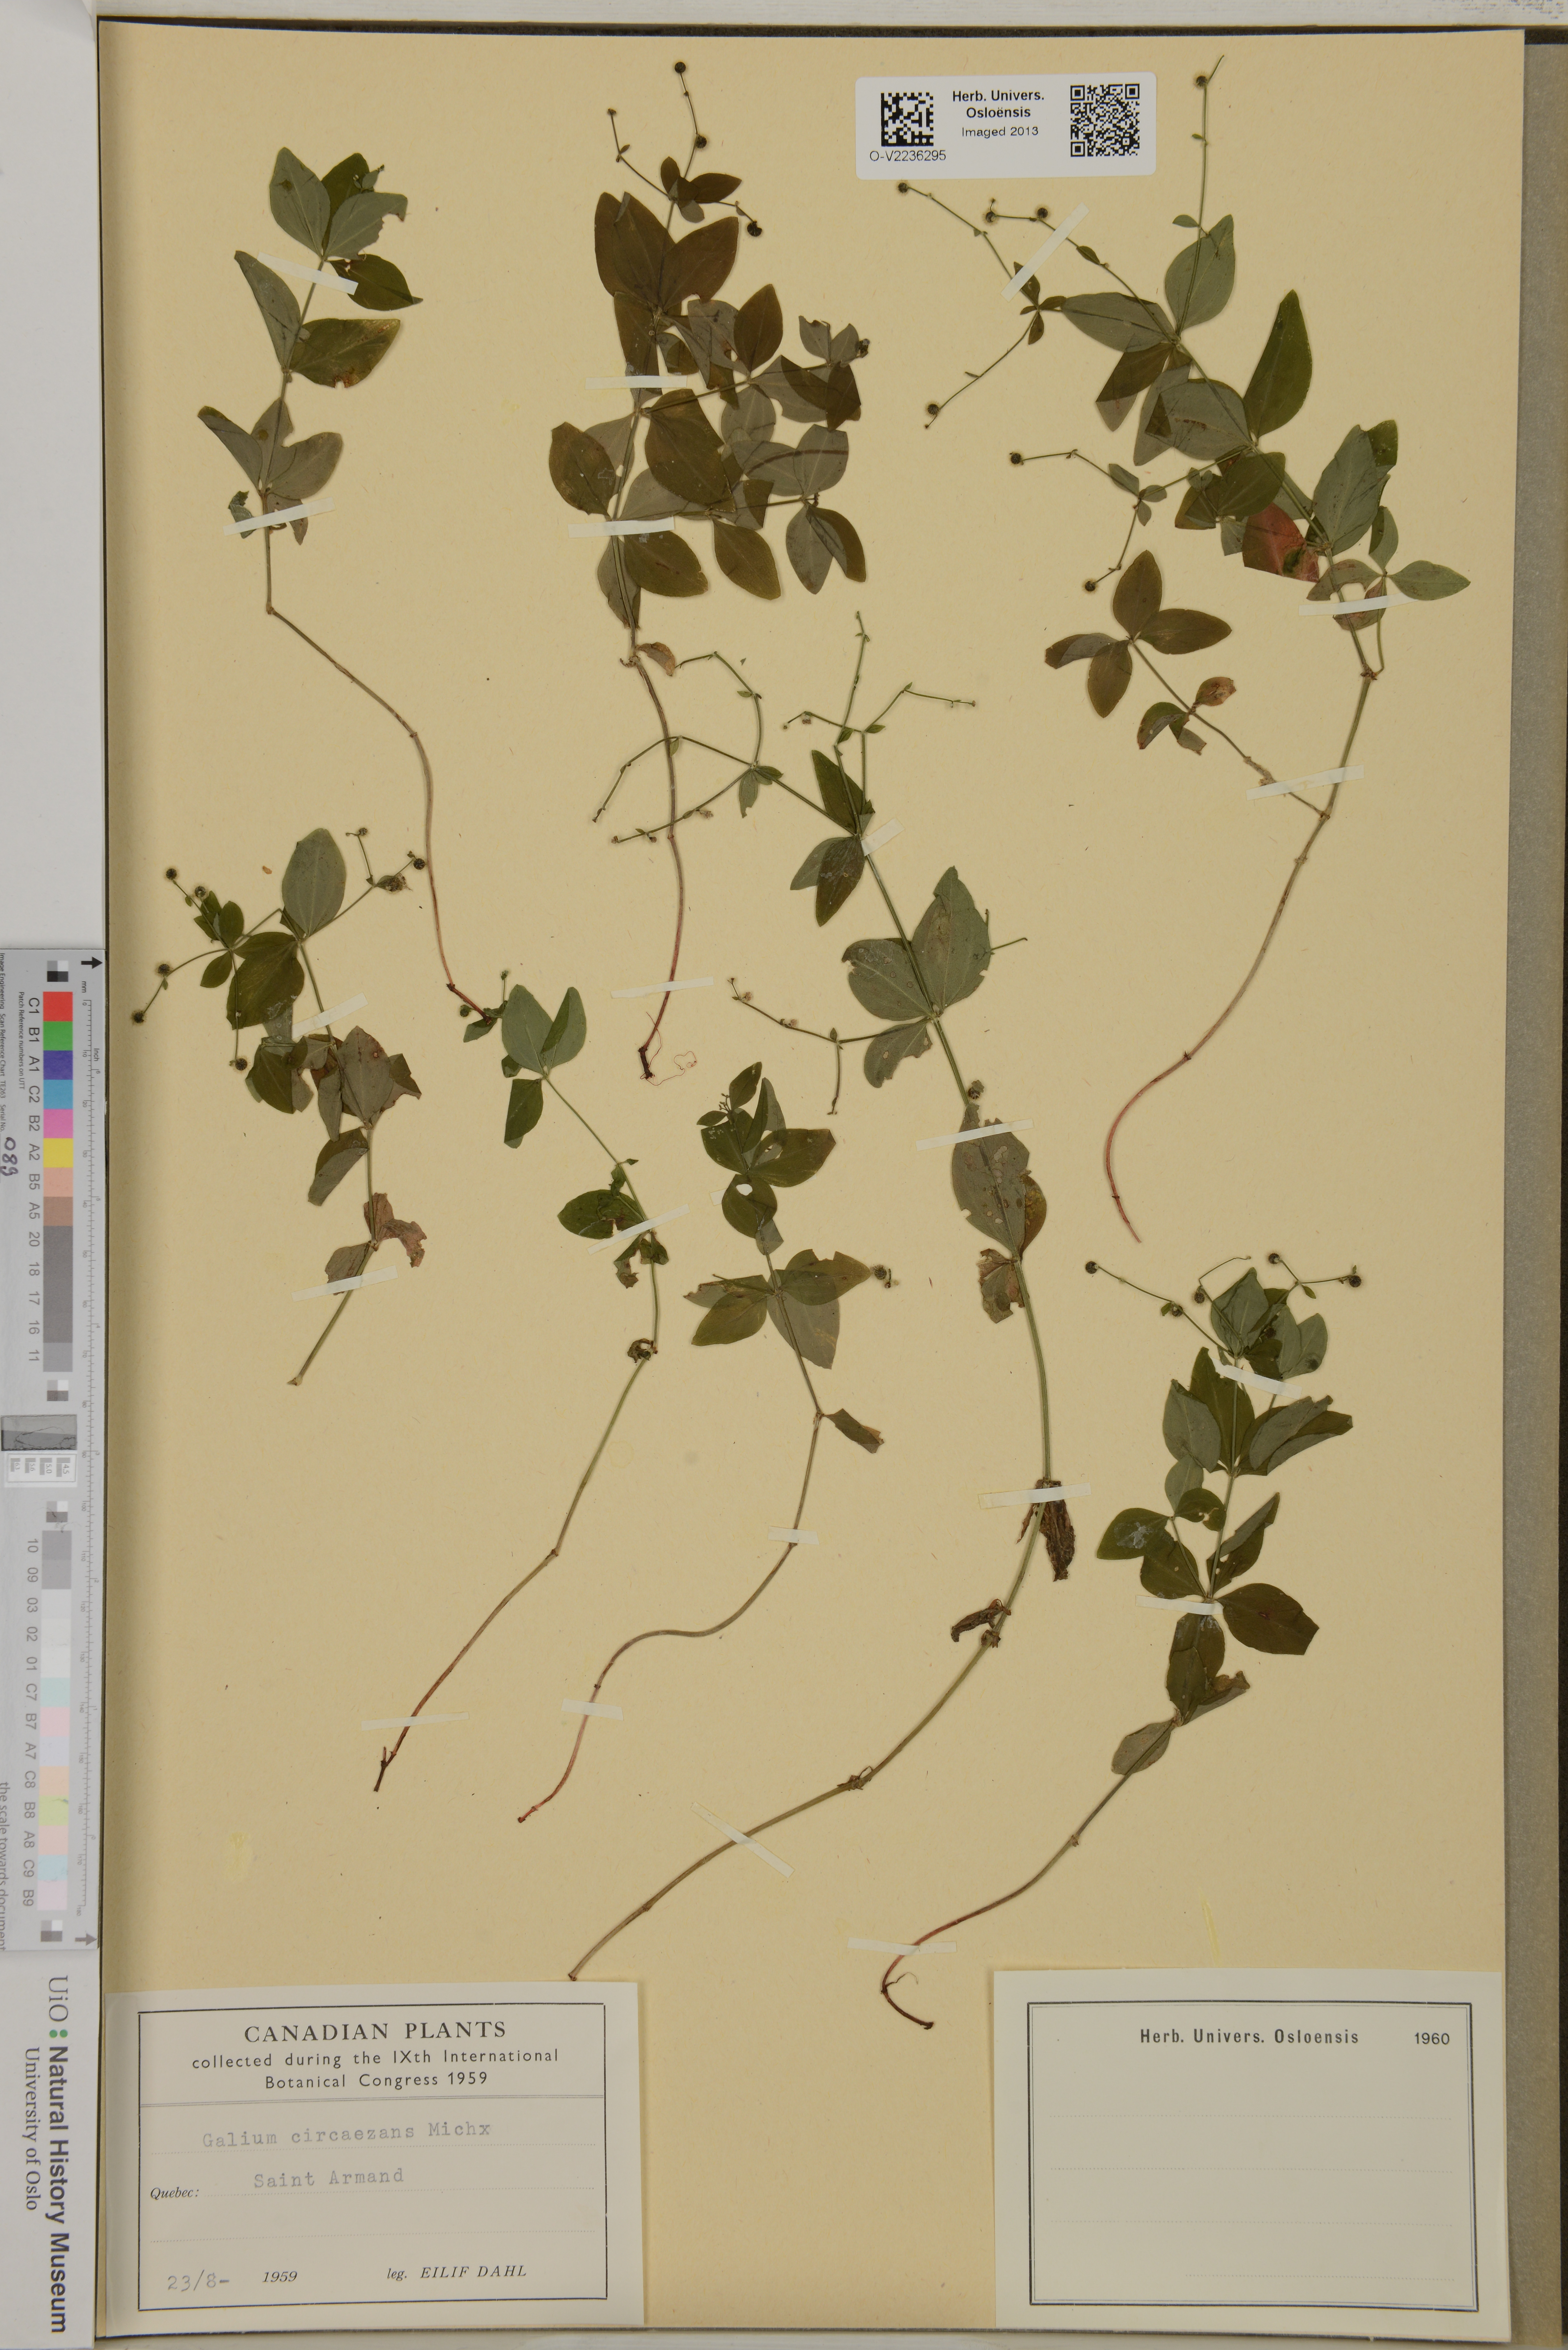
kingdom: Plantae
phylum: Tracheophyta
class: Magnoliopsida
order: Gentianales
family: Rubiaceae
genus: Galium
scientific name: Galium circaezans
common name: Forest bedstraw
